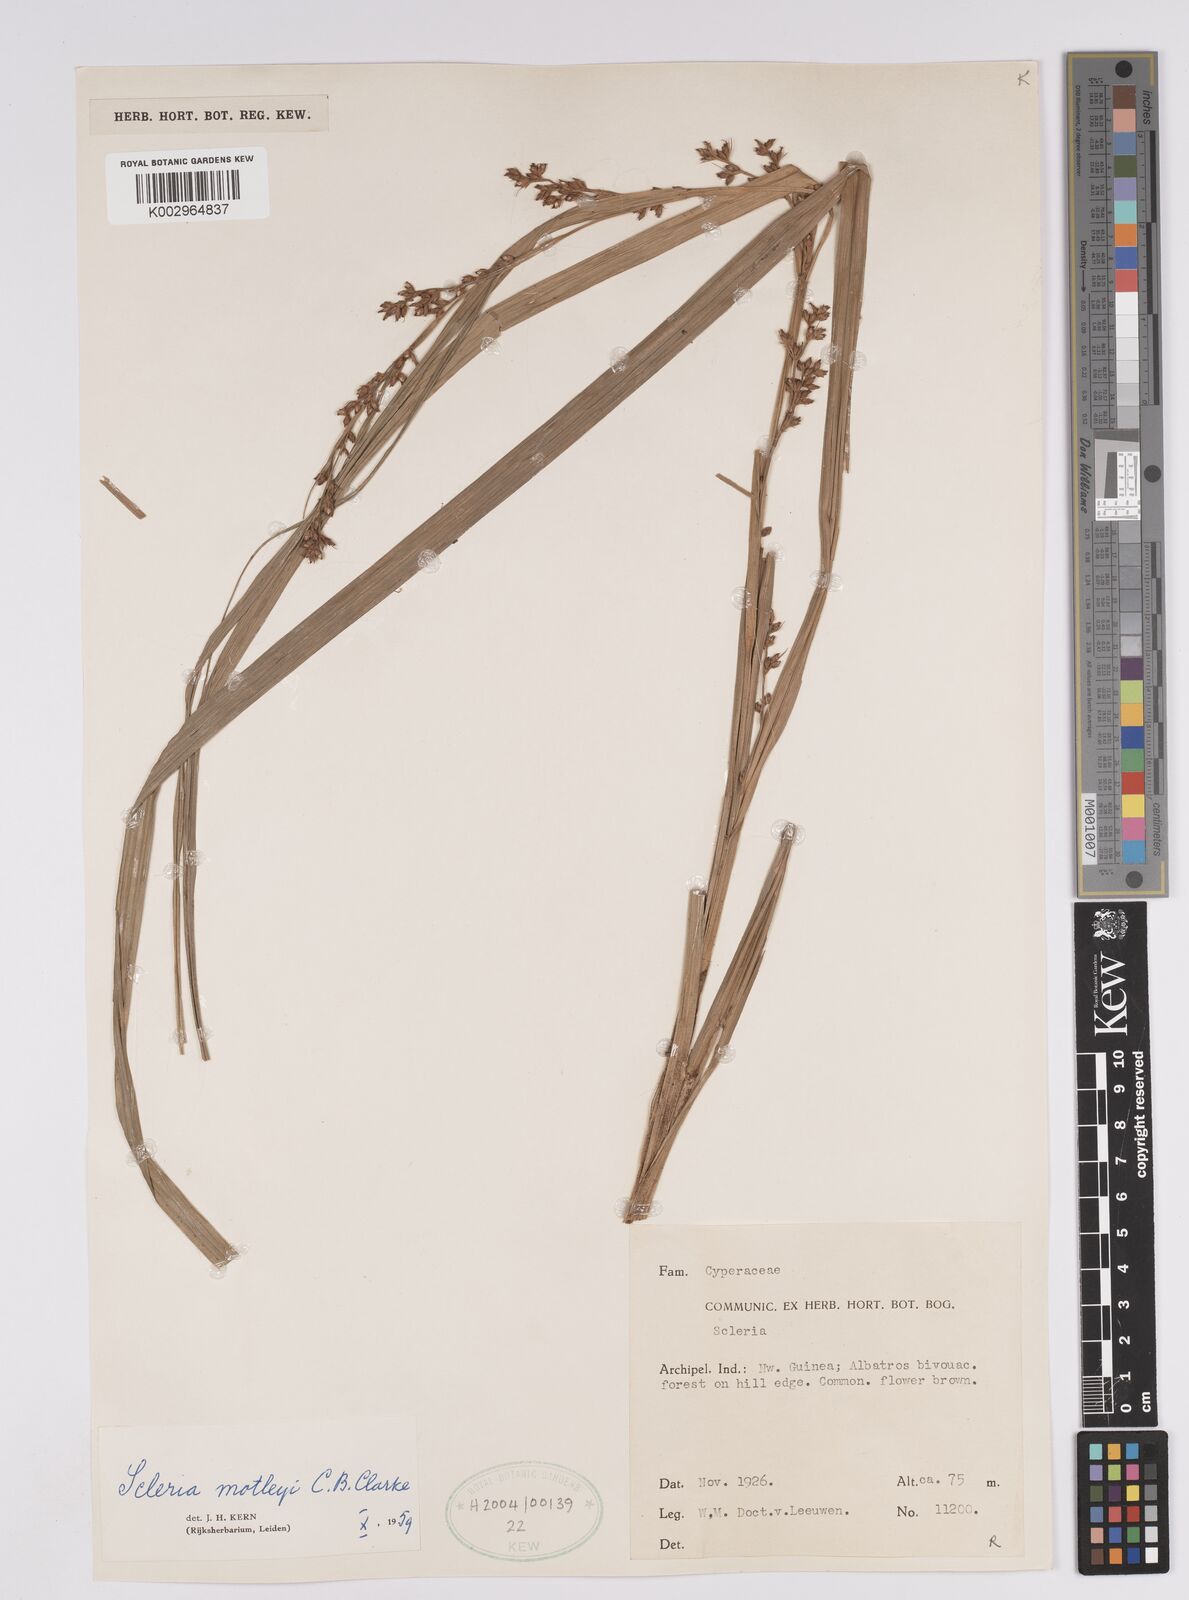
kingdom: Plantae
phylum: Tracheophyta
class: Liliopsida
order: Poales
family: Cyperaceae
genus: Scleria
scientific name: Scleria motleyi
